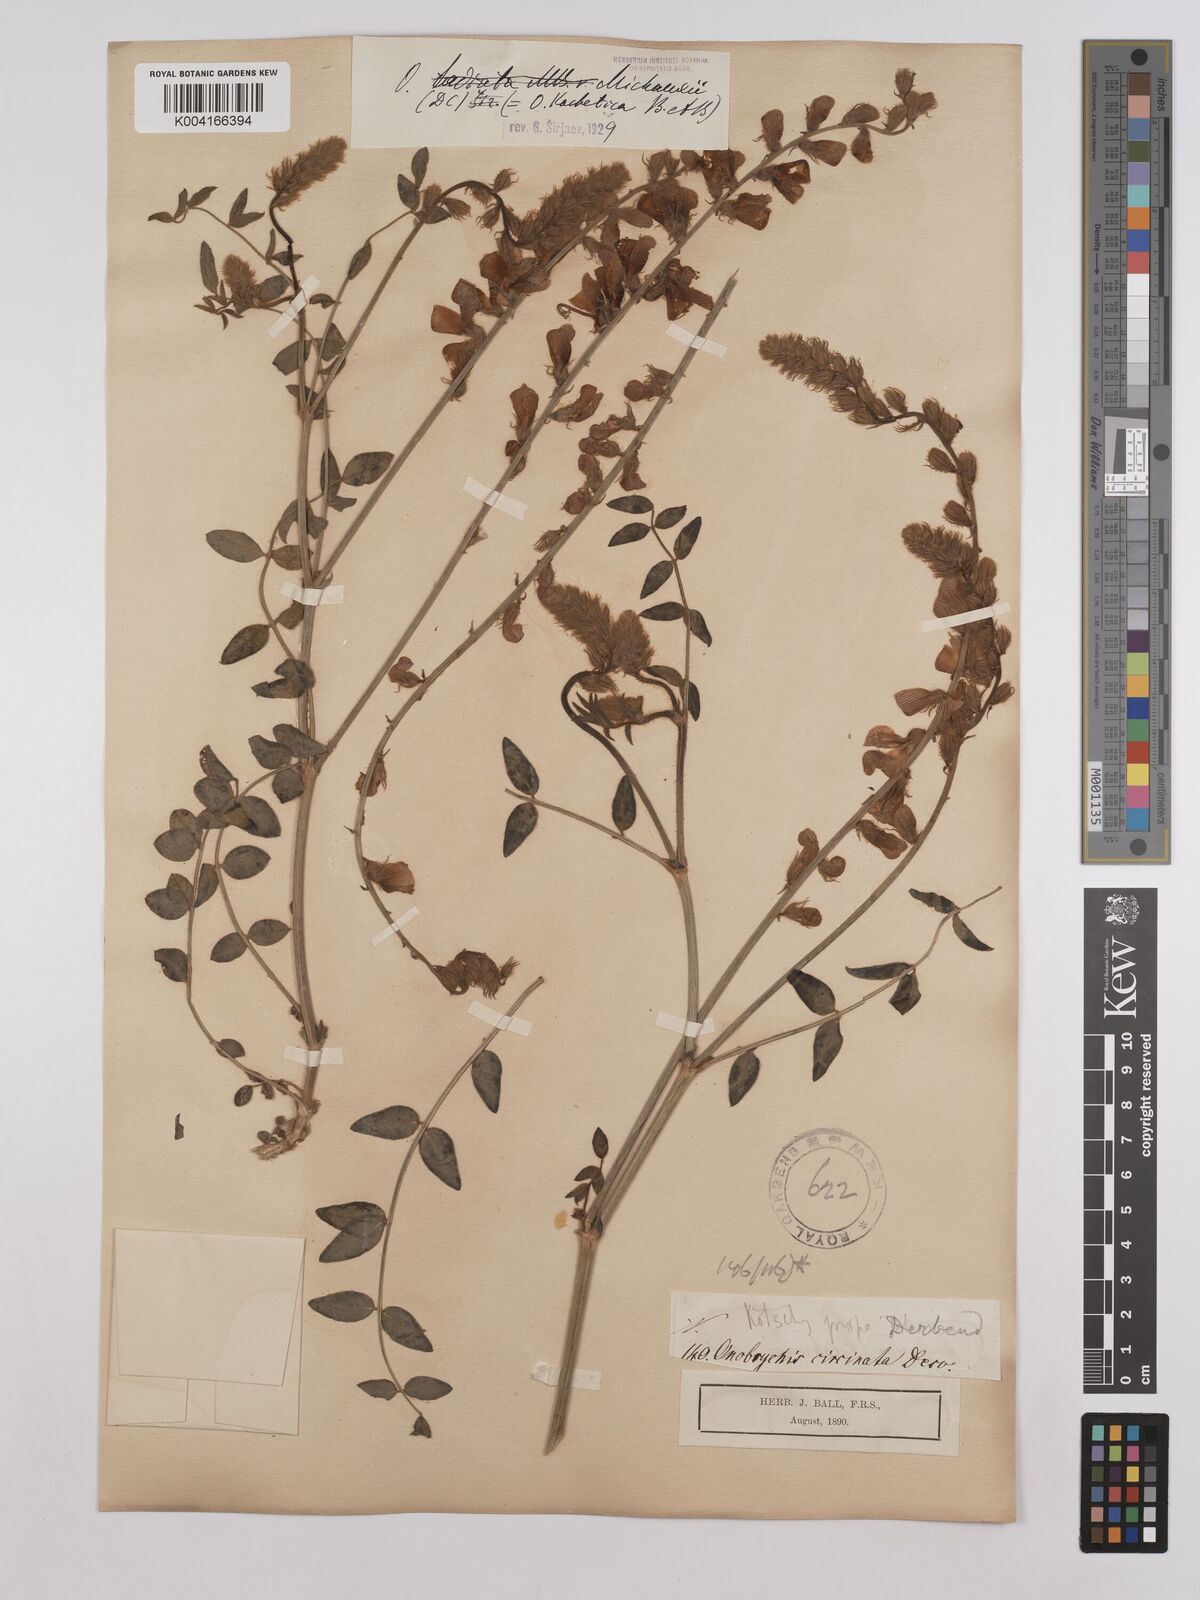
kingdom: Plantae
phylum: Tracheophyta
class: Magnoliopsida
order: Fabales
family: Fabaceae
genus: Onobrychis
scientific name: Onobrychis michauxii
